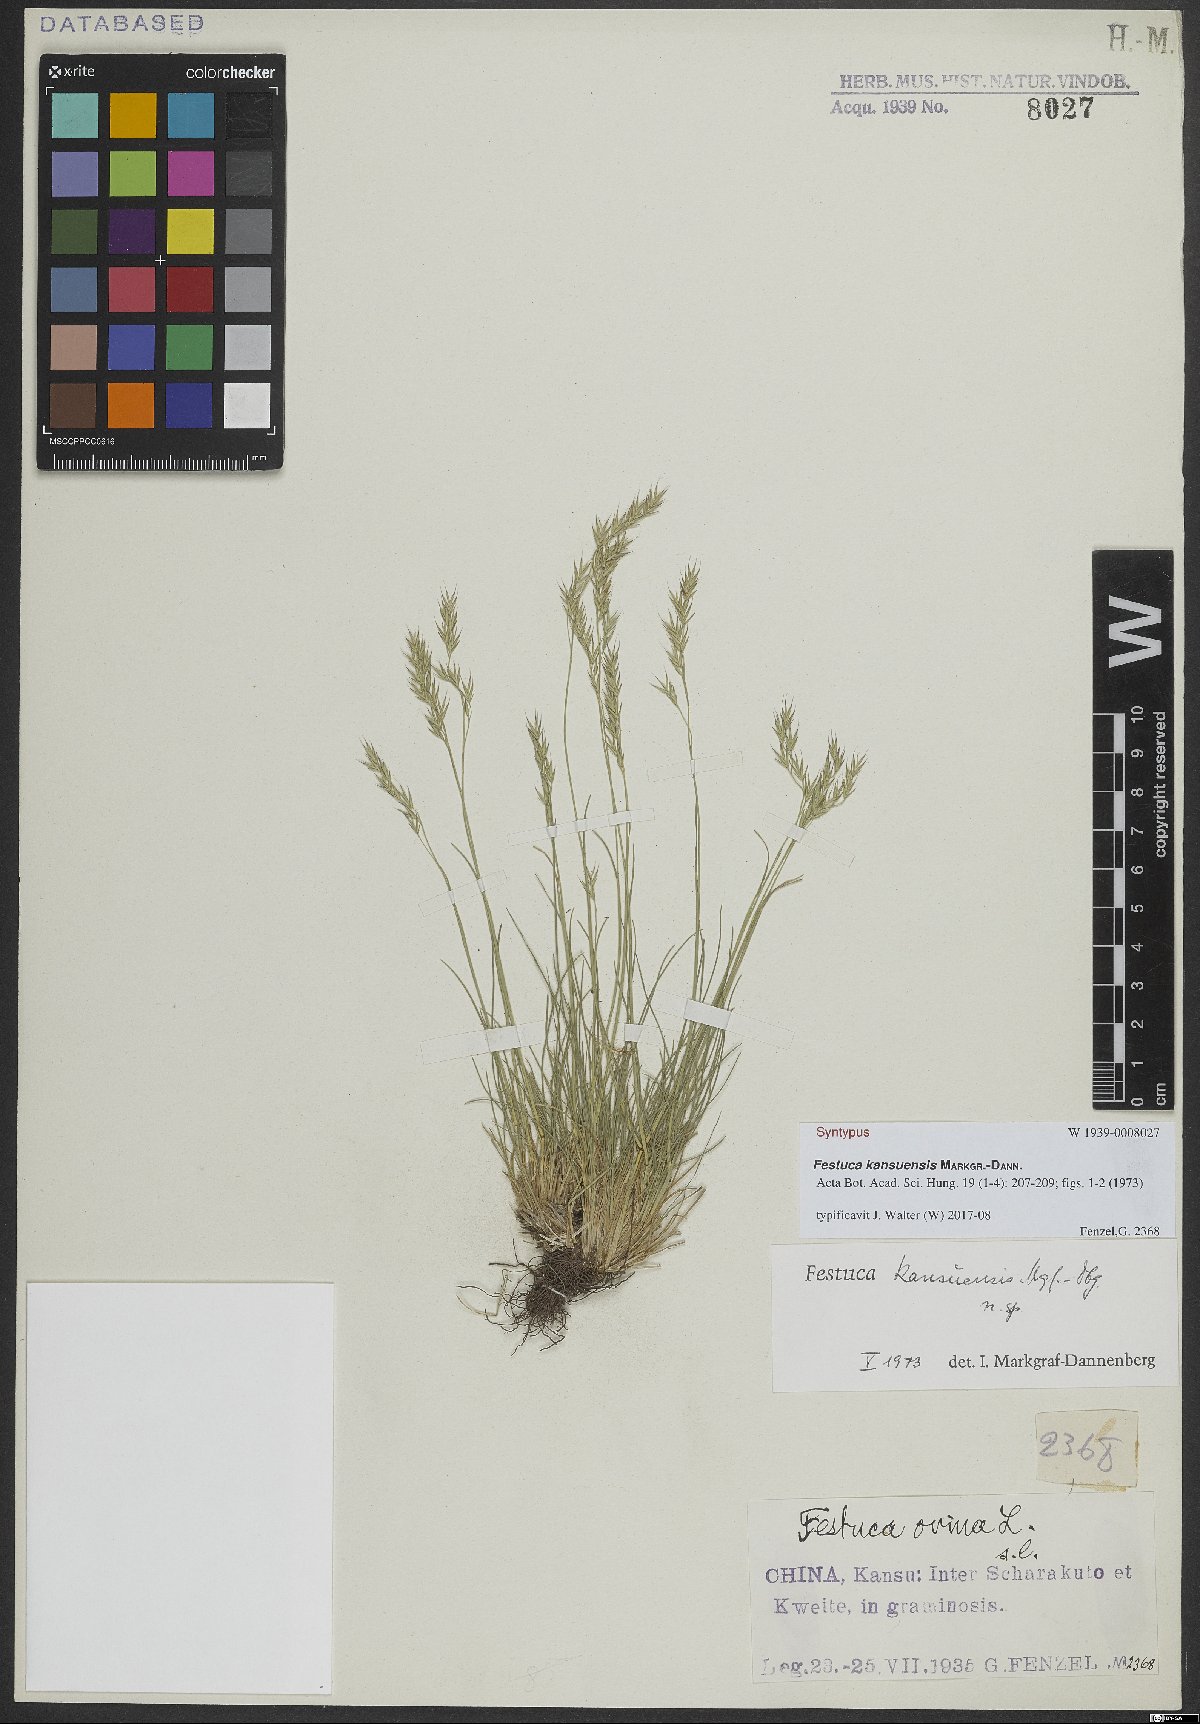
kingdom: Plantae
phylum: Tracheophyta
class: Liliopsida
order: Poales
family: Poaceae
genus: Festuca
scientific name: Festuca kansuensis
